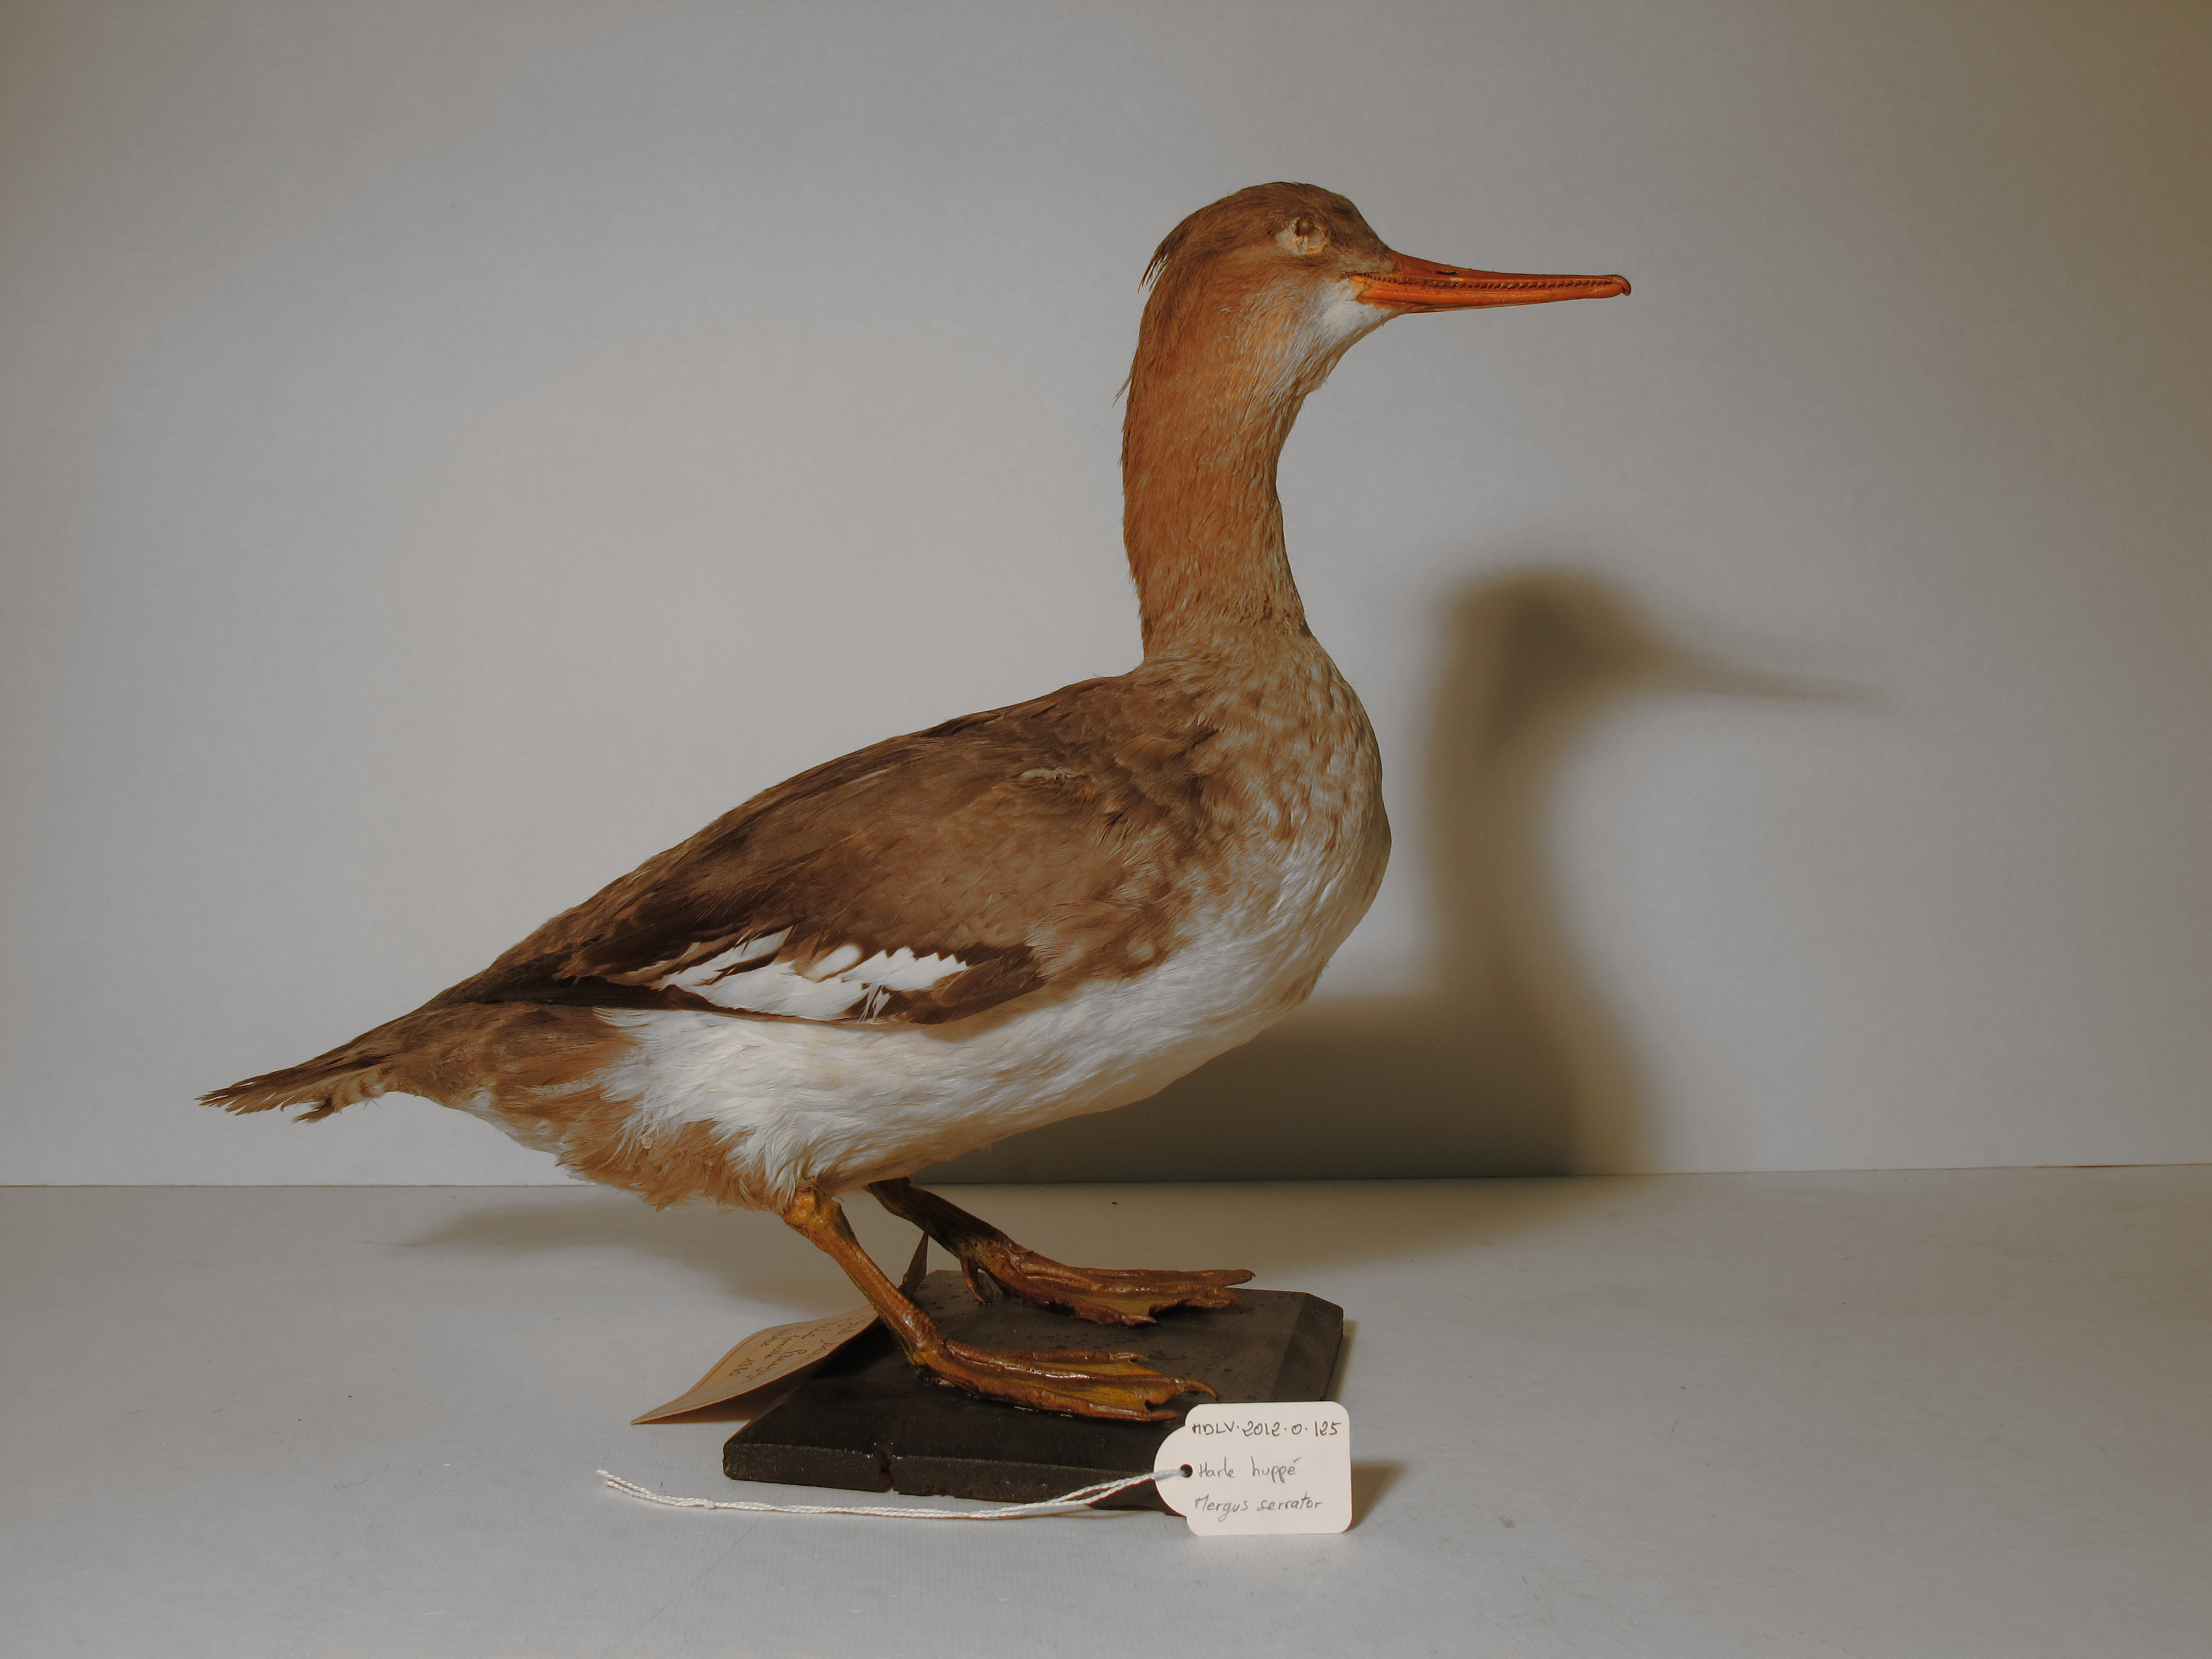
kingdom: Animalia
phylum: Chordata
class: Aves
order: Anseriformes
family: Anatidae
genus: Mergus
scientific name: Mergus serrator
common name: Red-breasted Merganser
